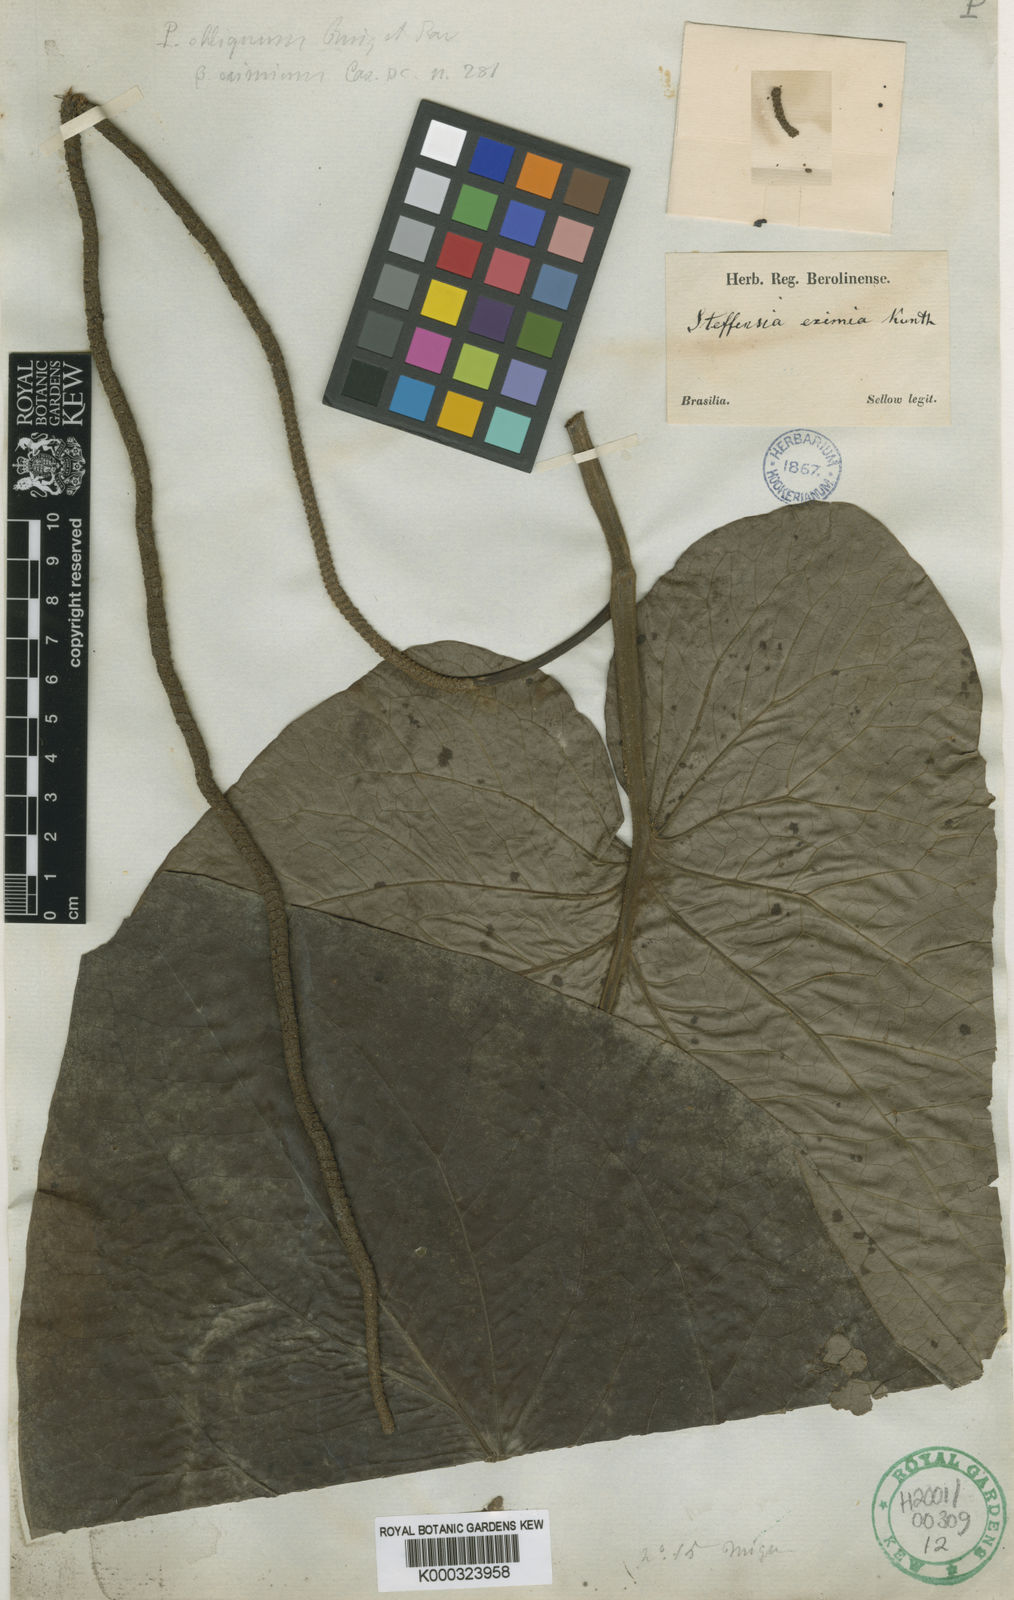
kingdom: Plantae
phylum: Tracheophyta
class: Magnoliopsida
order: Piperales
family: Piperaceae
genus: Piper
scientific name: Piper cernuum
